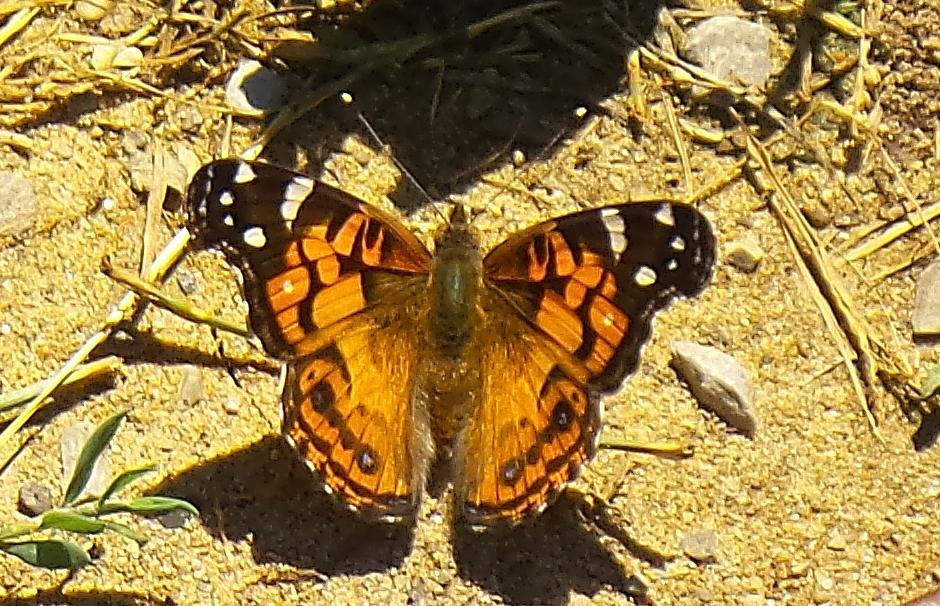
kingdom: Animalia
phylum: Arthropoda
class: Insecta
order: Lepidoptera
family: Nymphalidae
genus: Vanessa
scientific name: Vanessa virginiensis
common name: American Lady
